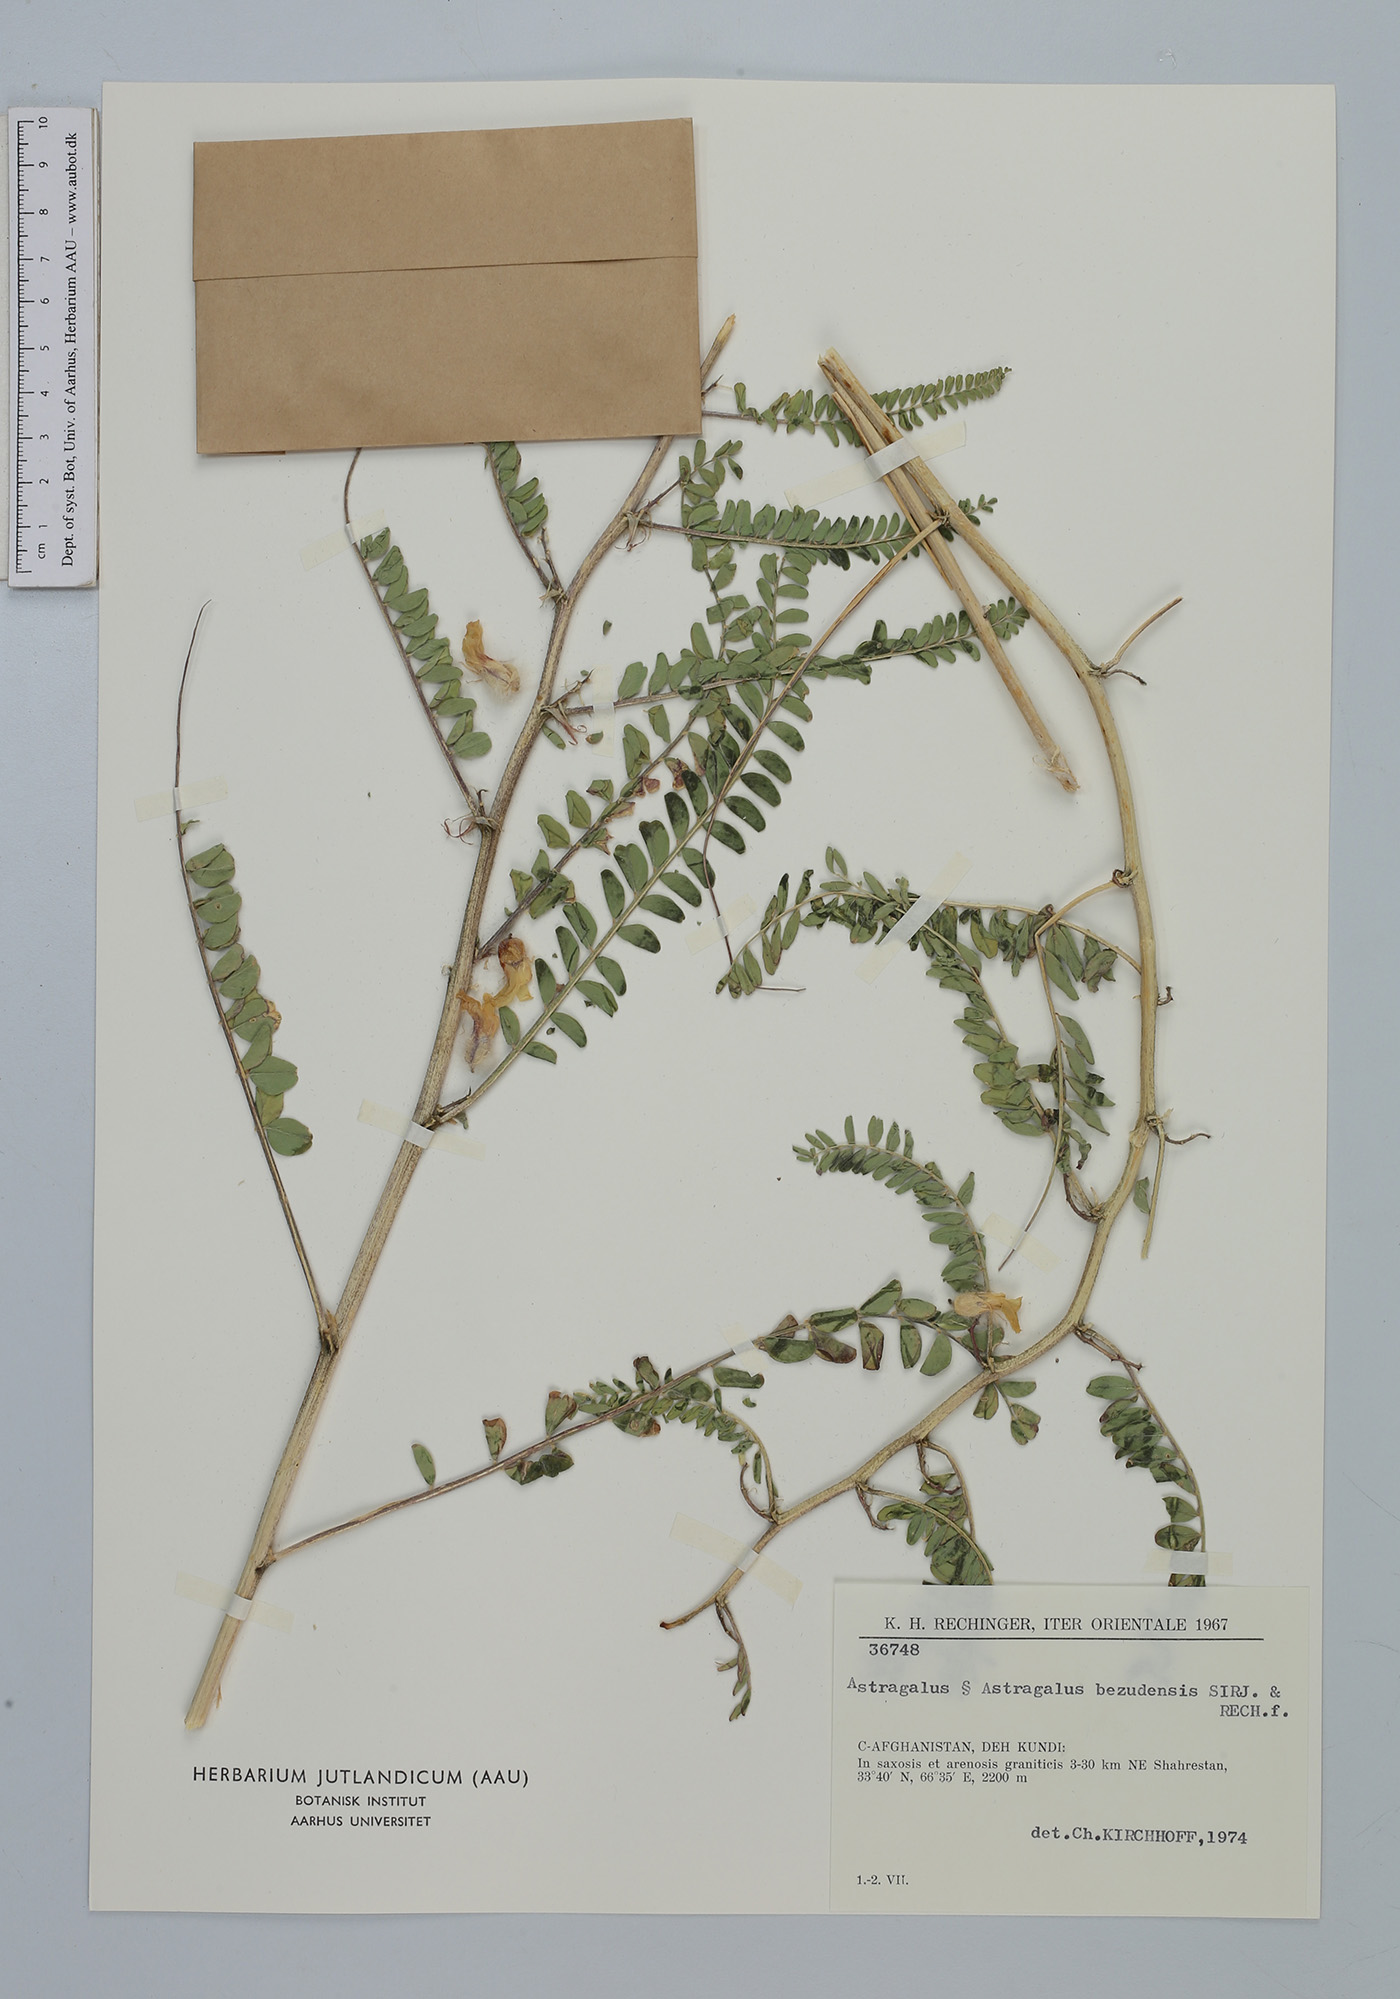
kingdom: Plantae
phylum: Tracheophyta
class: Magnoliopsida
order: Fabales
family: Fabaceae
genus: Astragalus
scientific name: Astragalus bezudensis
